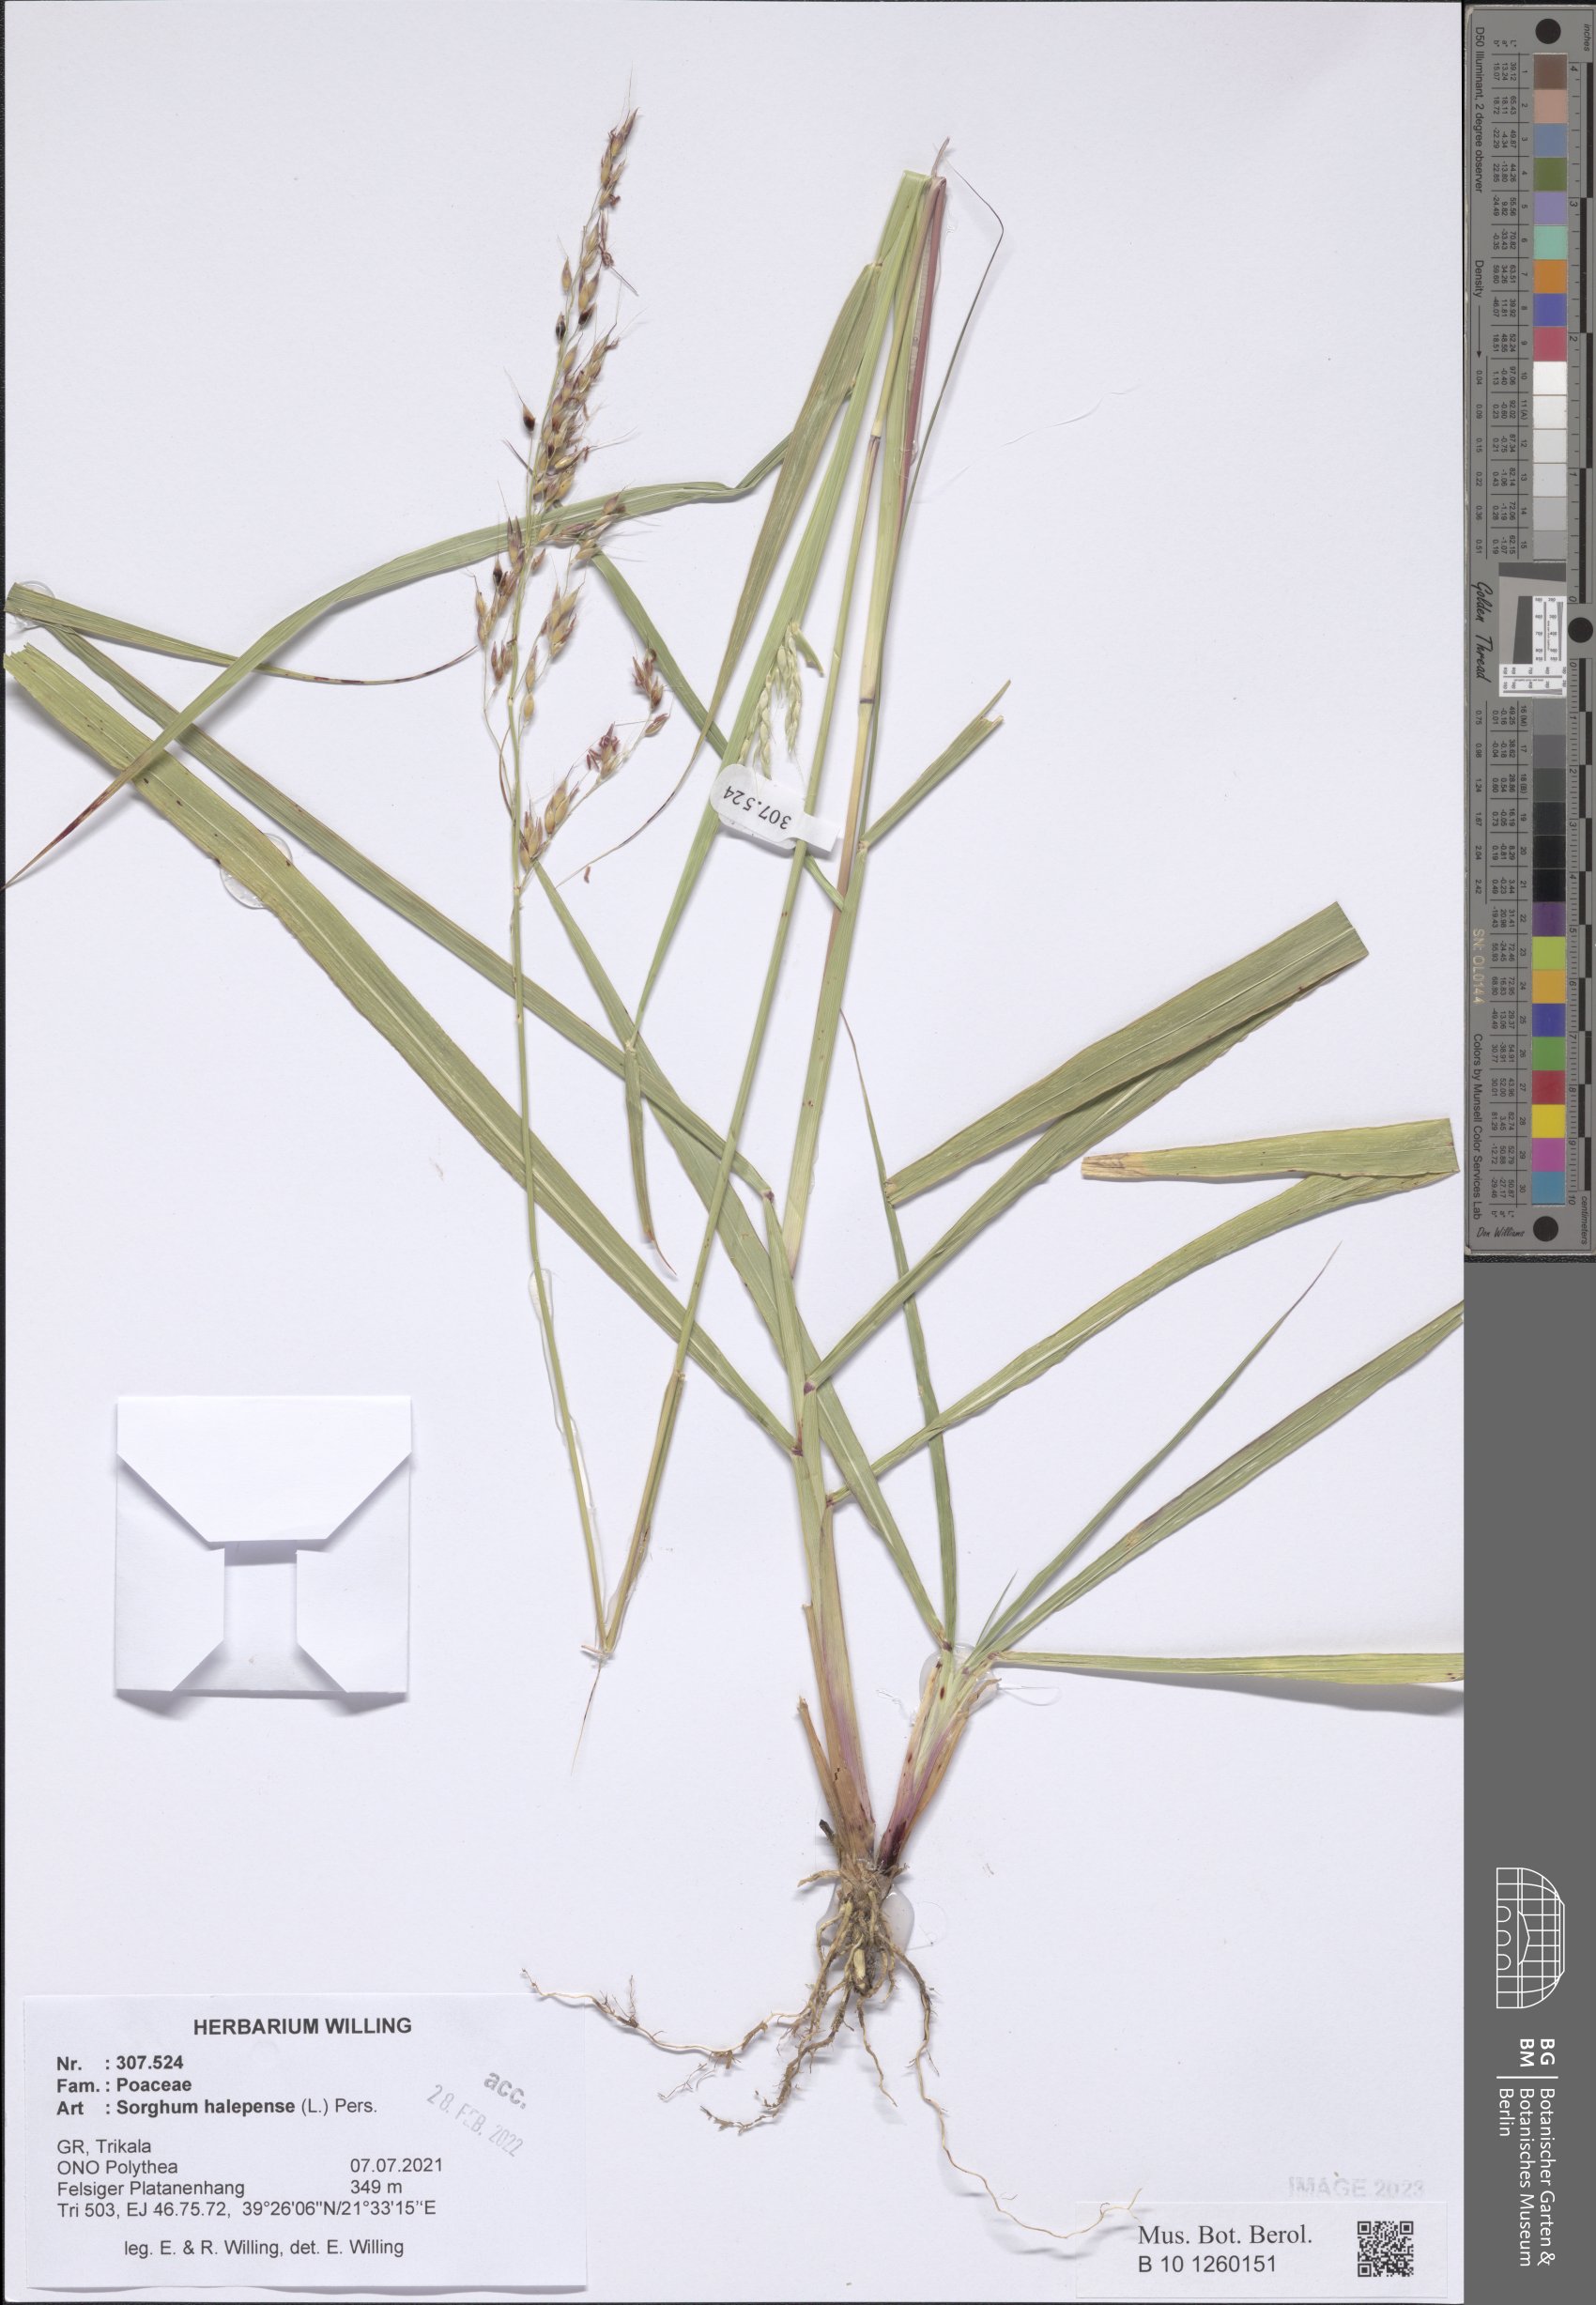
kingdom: Plantae
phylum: Tracheophyta
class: Liliopsida
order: Poales
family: Poaceae
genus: Sorghum
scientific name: Sorghum halepense
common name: Johnson-grass
